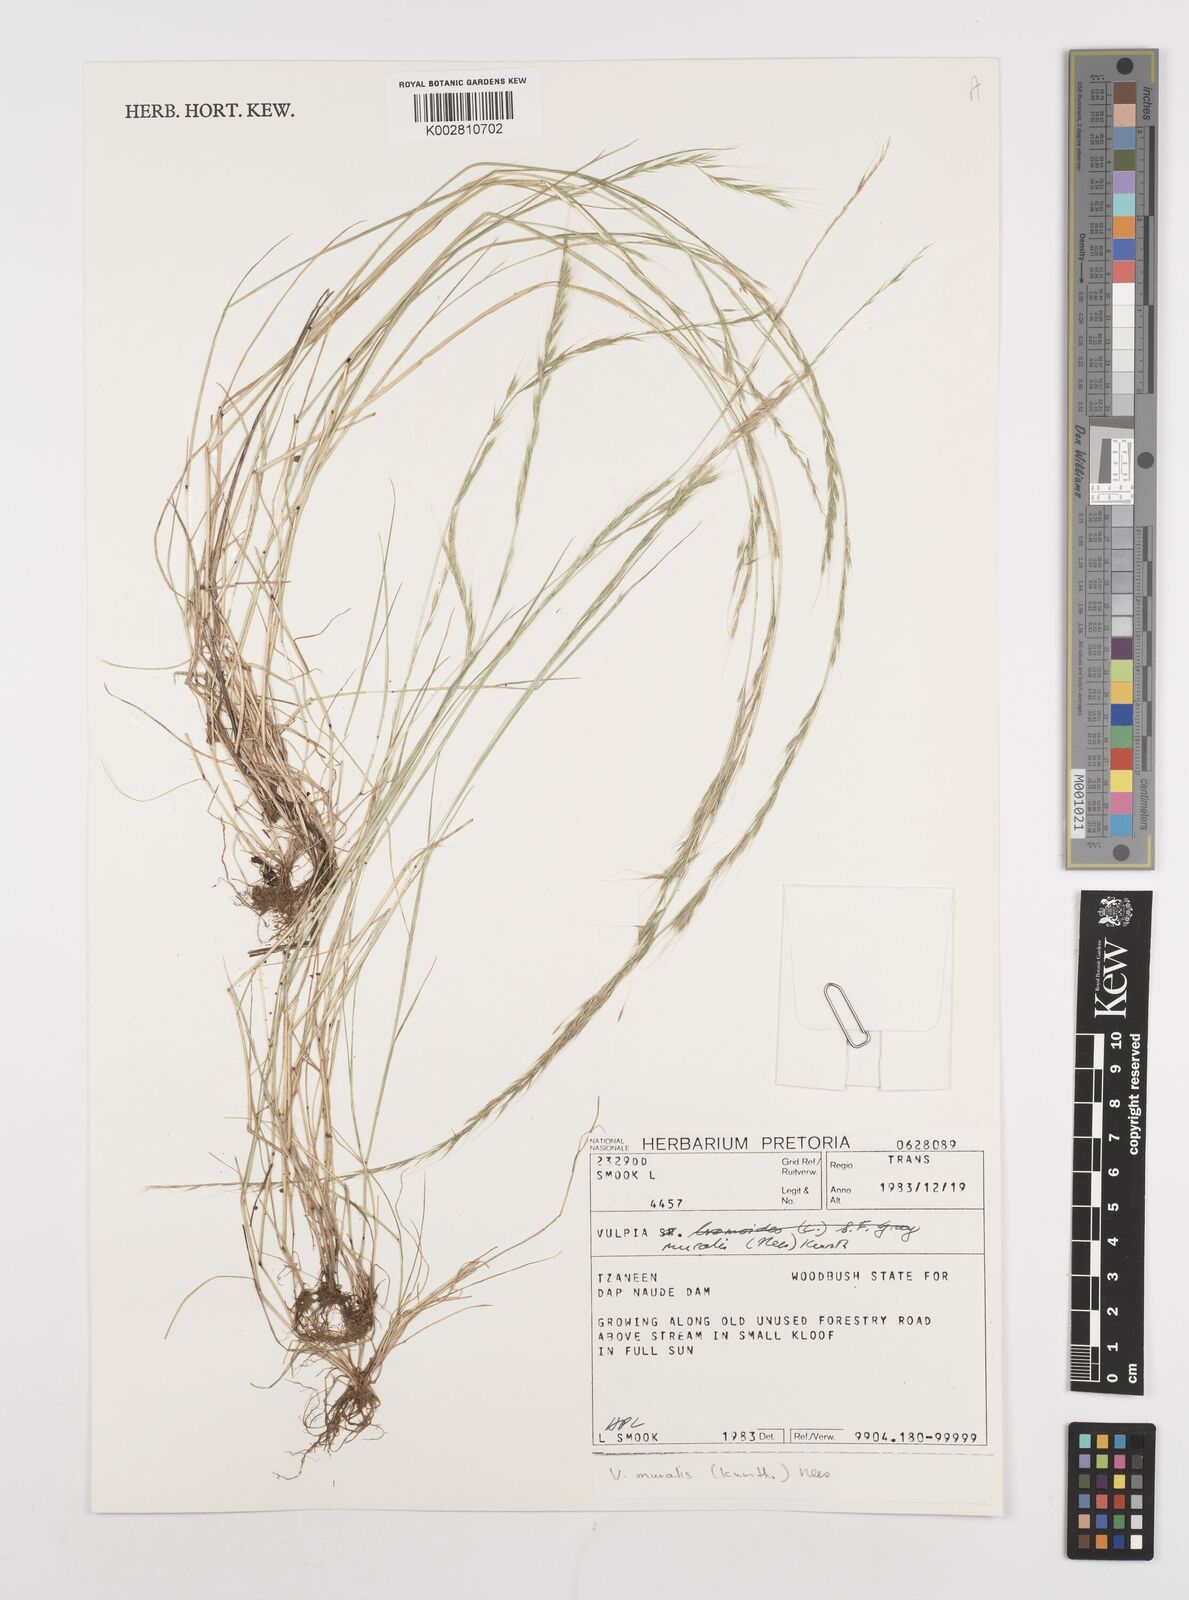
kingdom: Plantae
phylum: Tracheophyta
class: Liliopsida
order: Poales
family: Poaceae
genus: Festuca
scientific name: Festuca muralis
